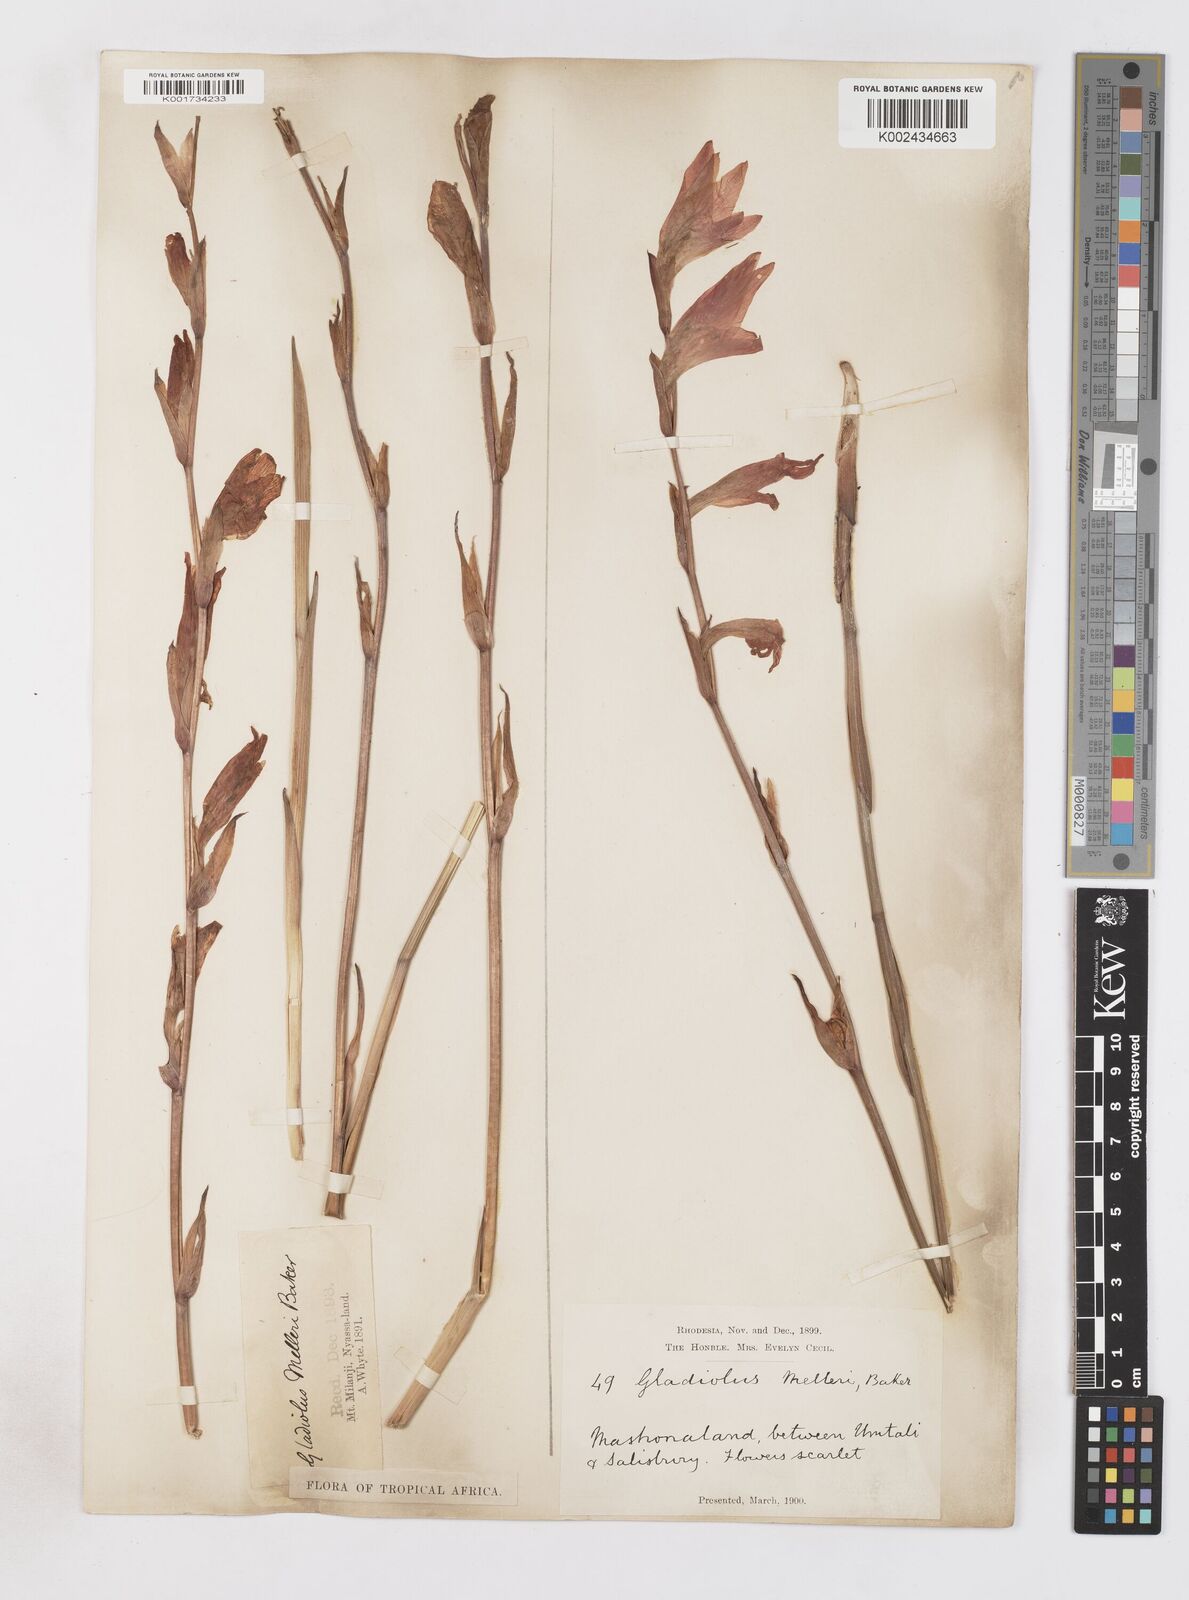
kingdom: Plantae
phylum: Tracheophyta
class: Liliopsida
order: Asparagales
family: Iridaceae
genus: Gladiolus
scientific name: Gladiolus melleri
